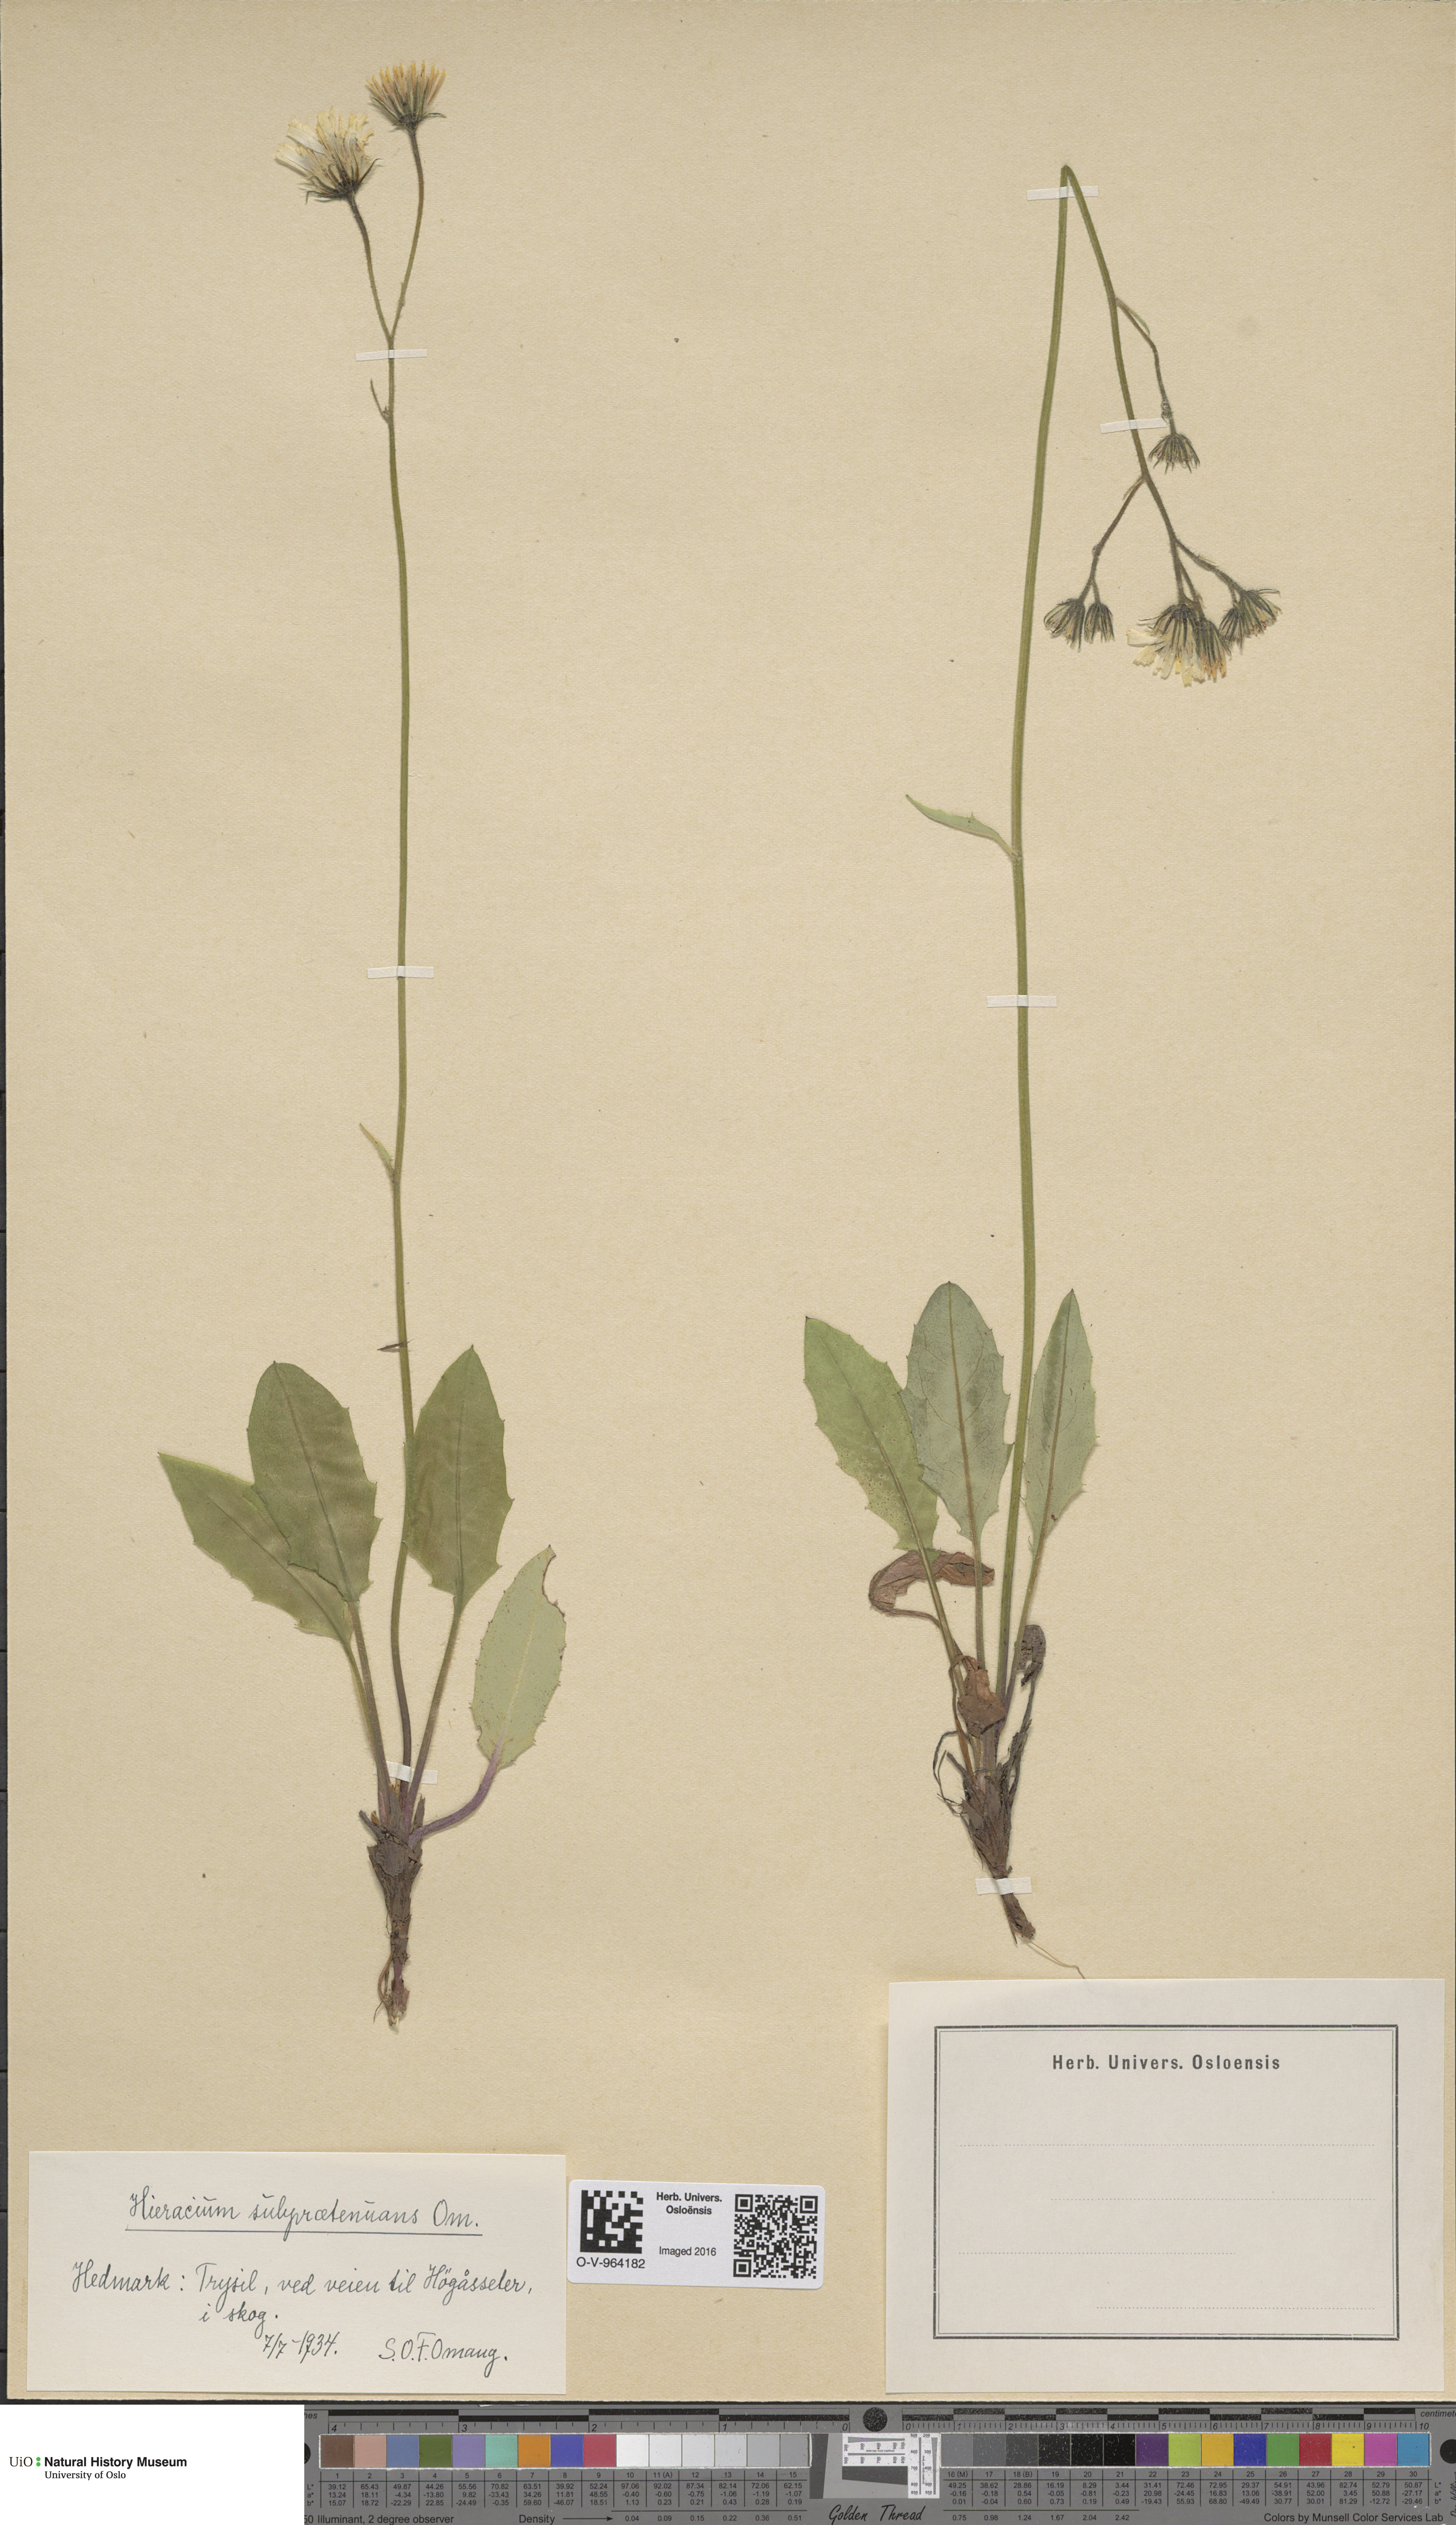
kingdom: Plantae
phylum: Tracheophyta
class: Magnoliopsida
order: Asterales
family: Asteraceae
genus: Hieracium
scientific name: Hieracium
